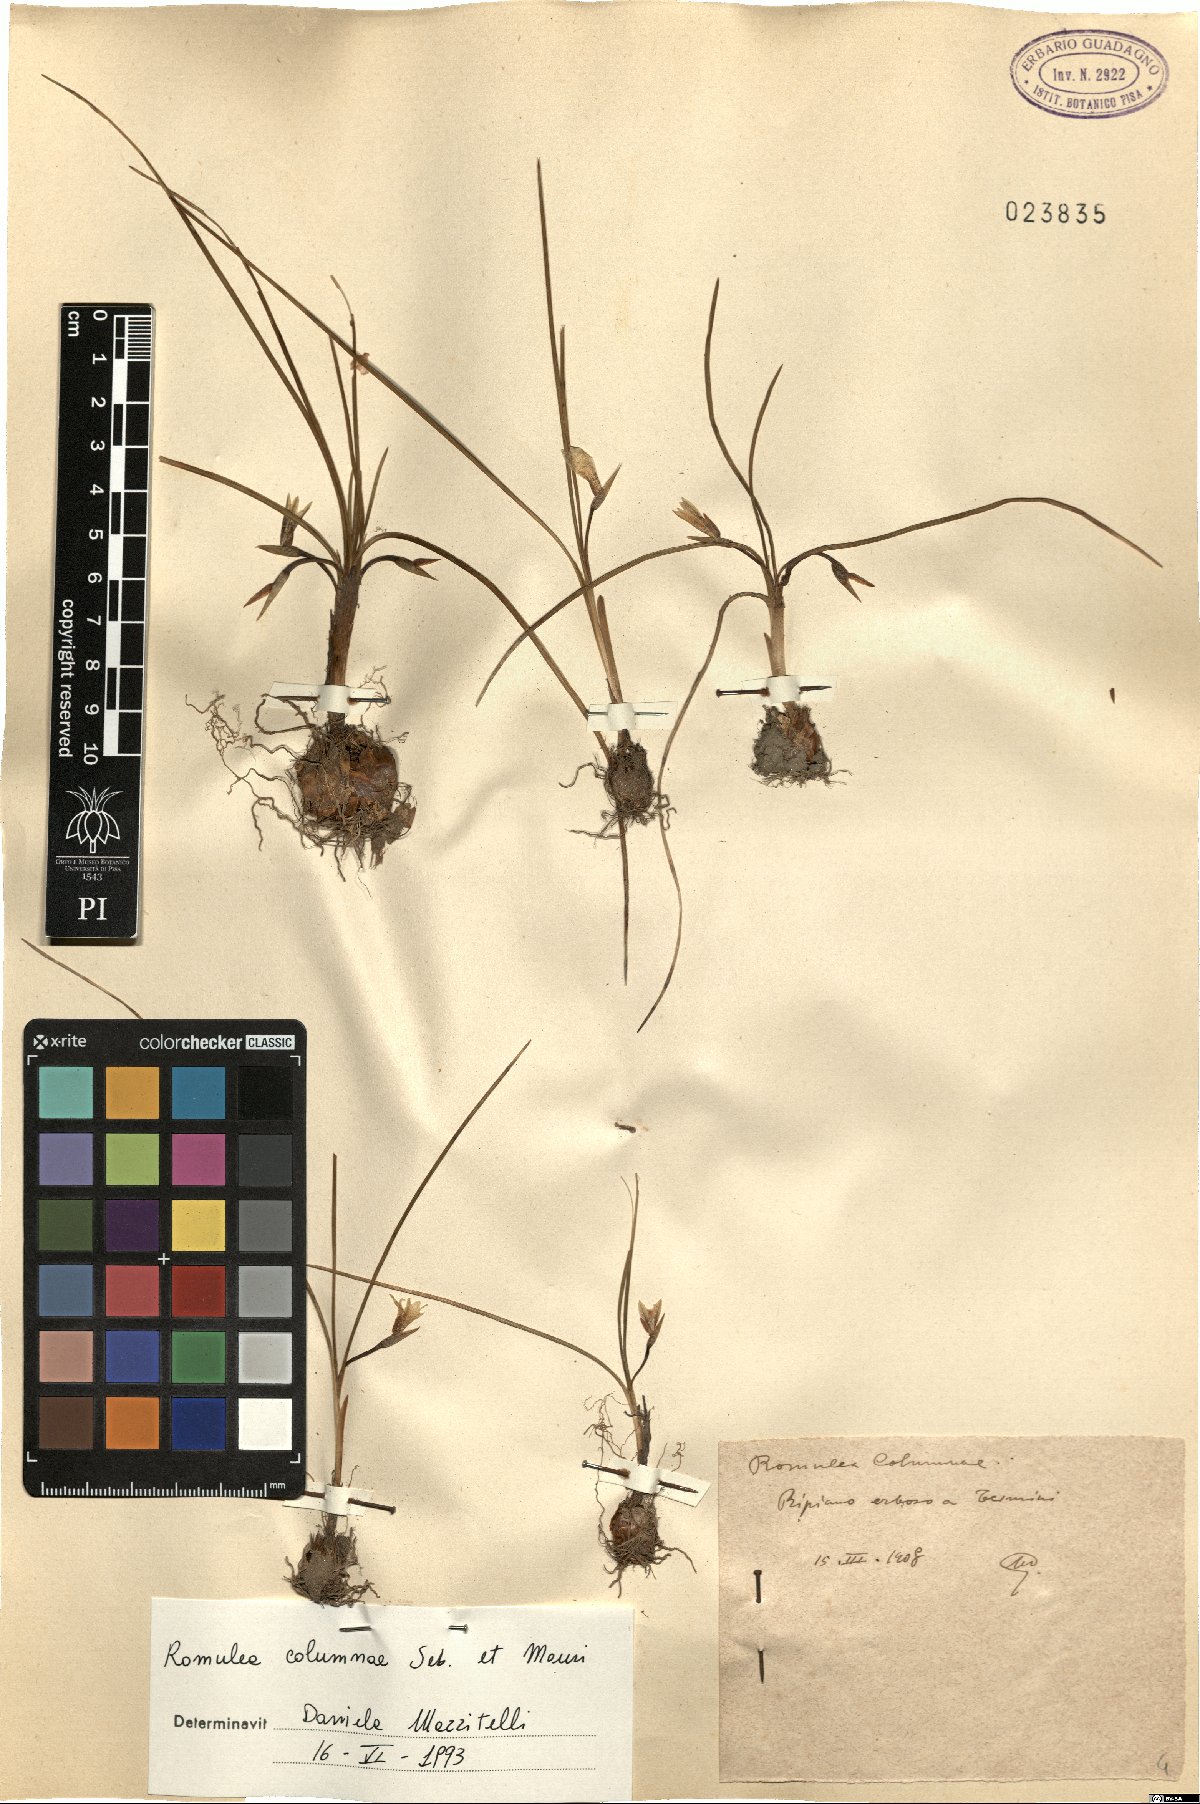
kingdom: Plantae
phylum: Tracheophyta
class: Liliopsida
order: Asparagales
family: Iridaceae
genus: Romulea
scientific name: Romulea columnae
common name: Sand-crocus
